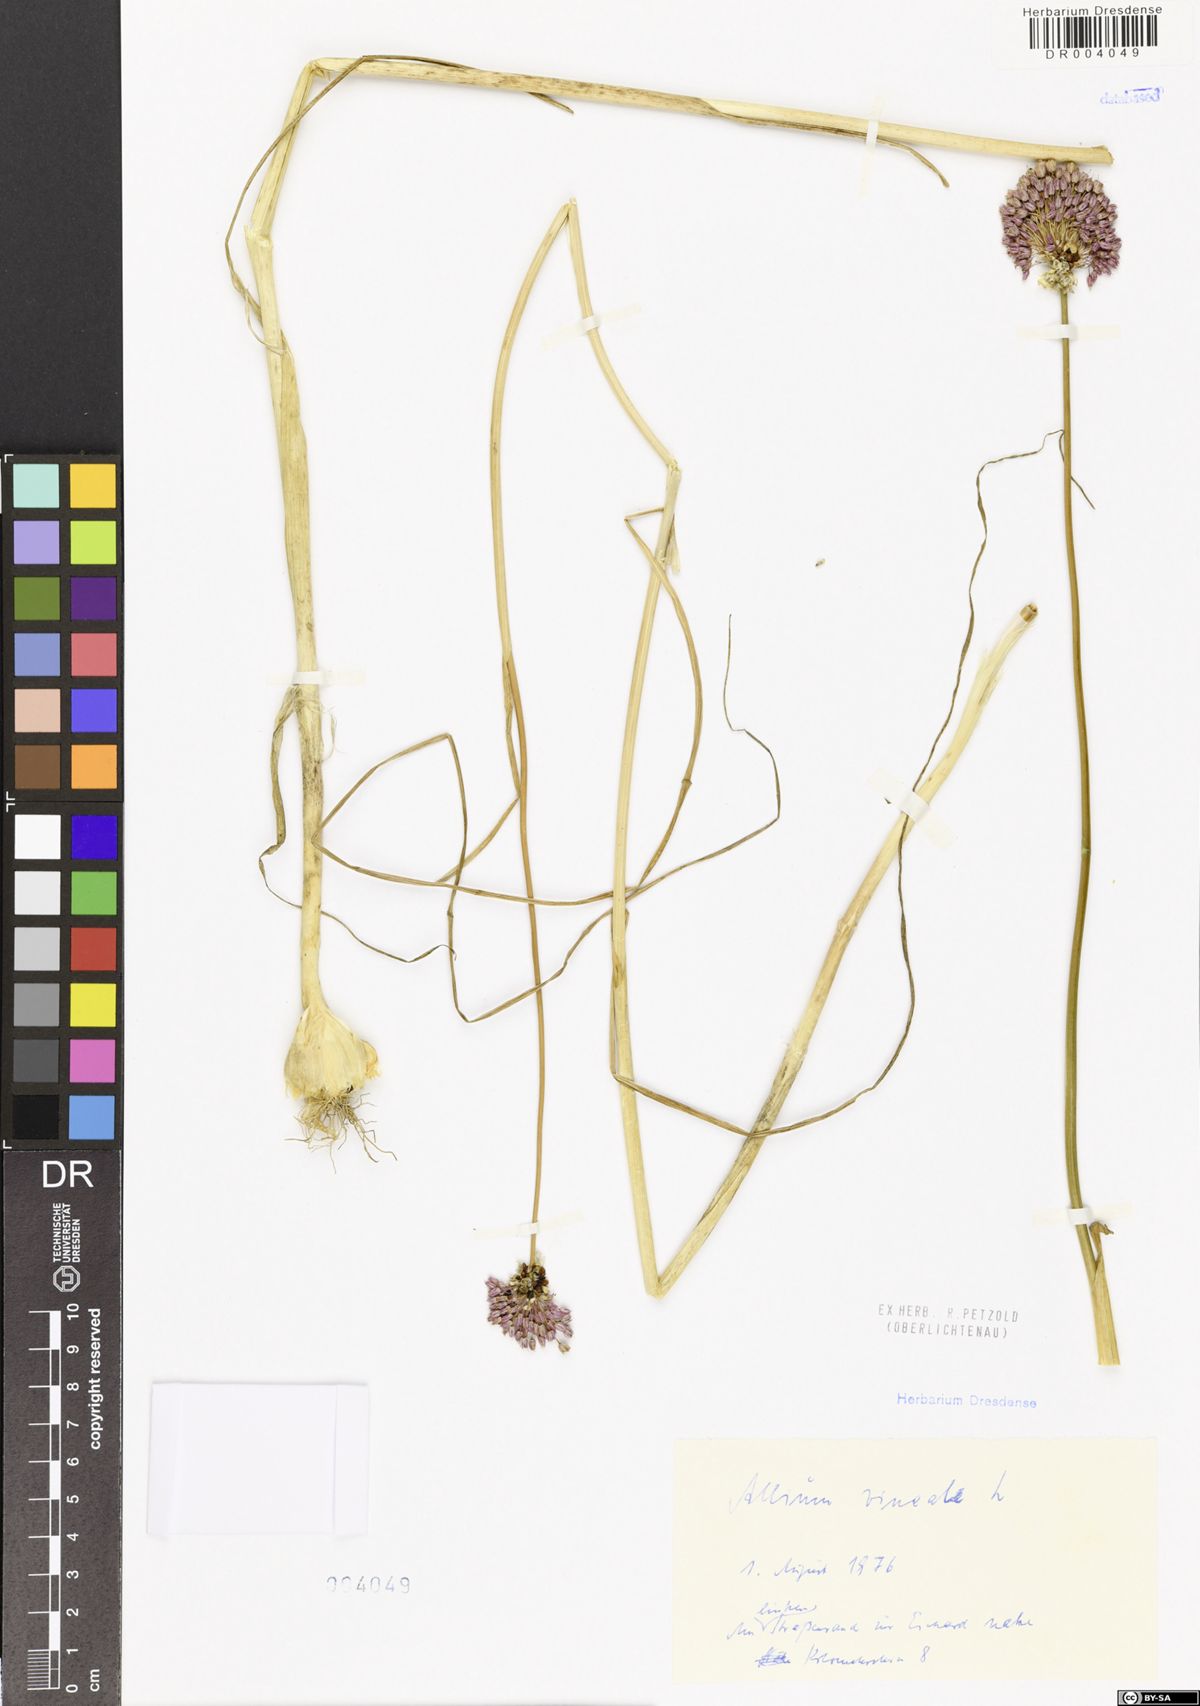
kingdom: Plantae
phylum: Tracheophyta
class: Liliopsida
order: Asparagales
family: Amaryllidaceae
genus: Allium
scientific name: Allium vineale
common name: Crow garlic
